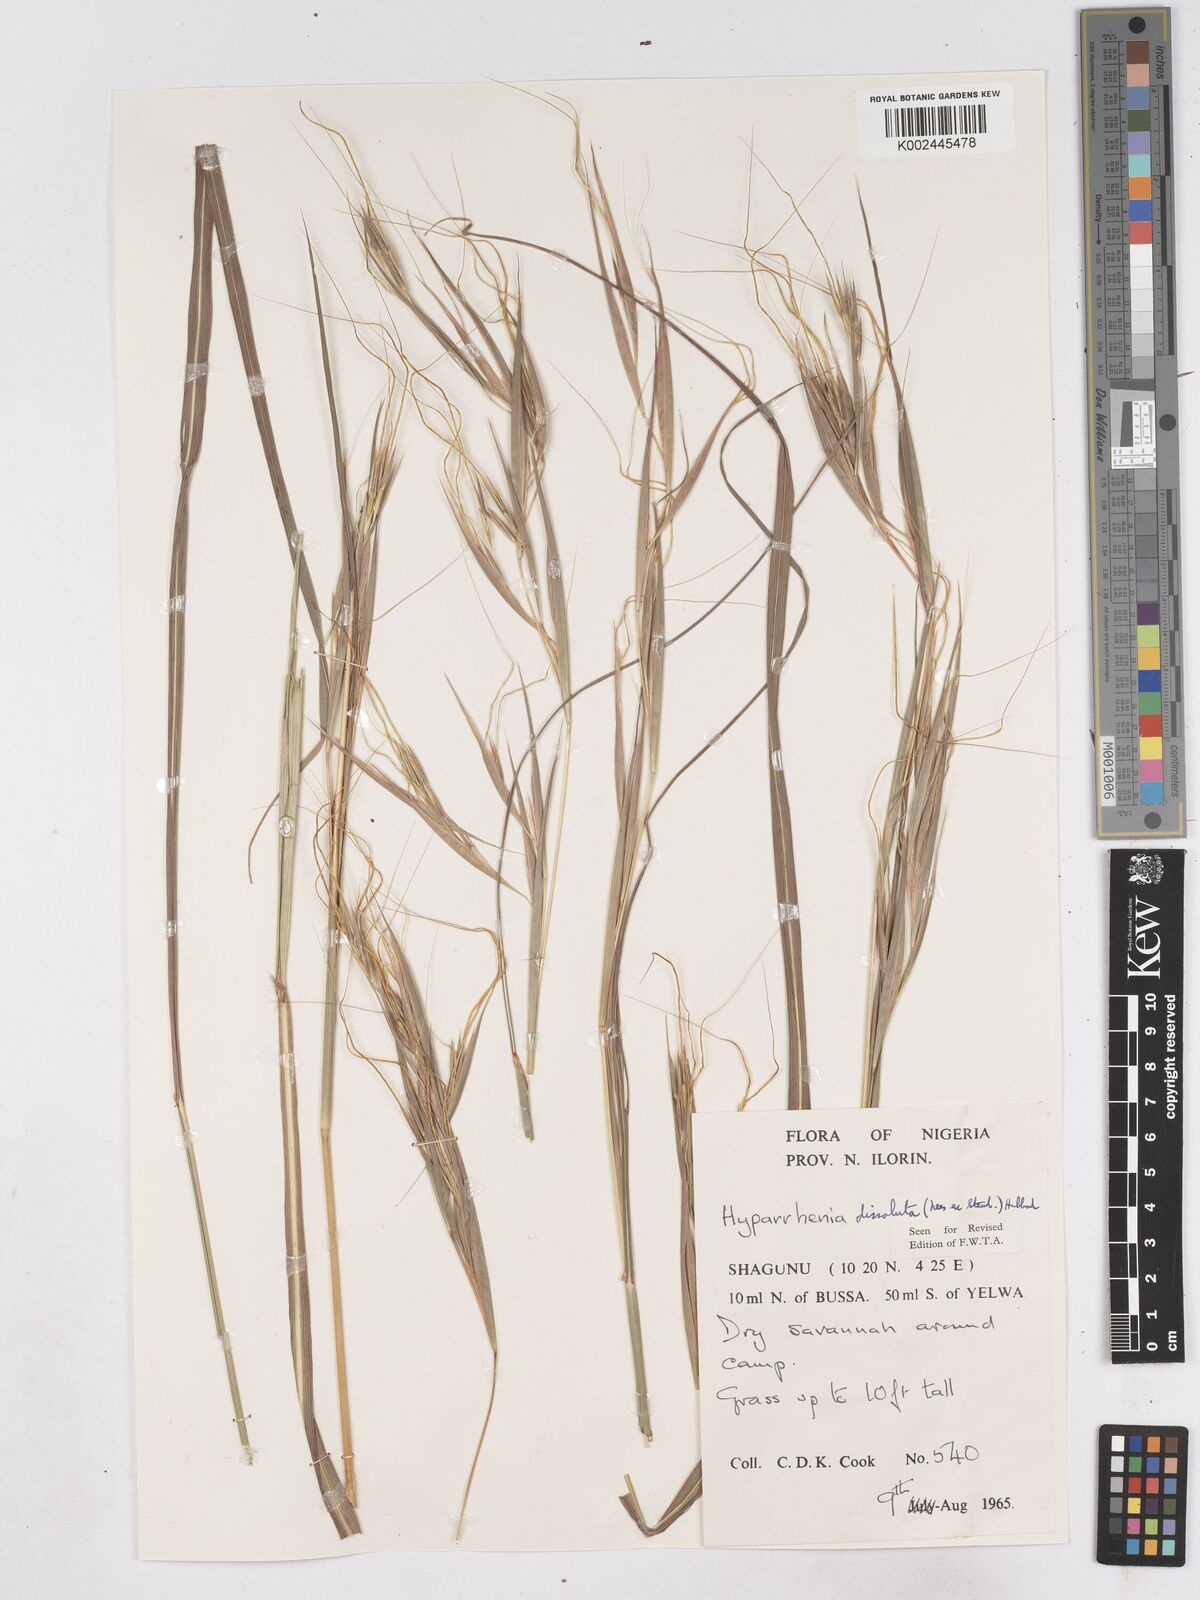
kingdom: Plantae
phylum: Tracheophyta
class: Liliopsida
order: Poales
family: Poaceae
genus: Hyperthelia
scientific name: Hyperthelia dissoluta
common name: Yellow thatching grass
